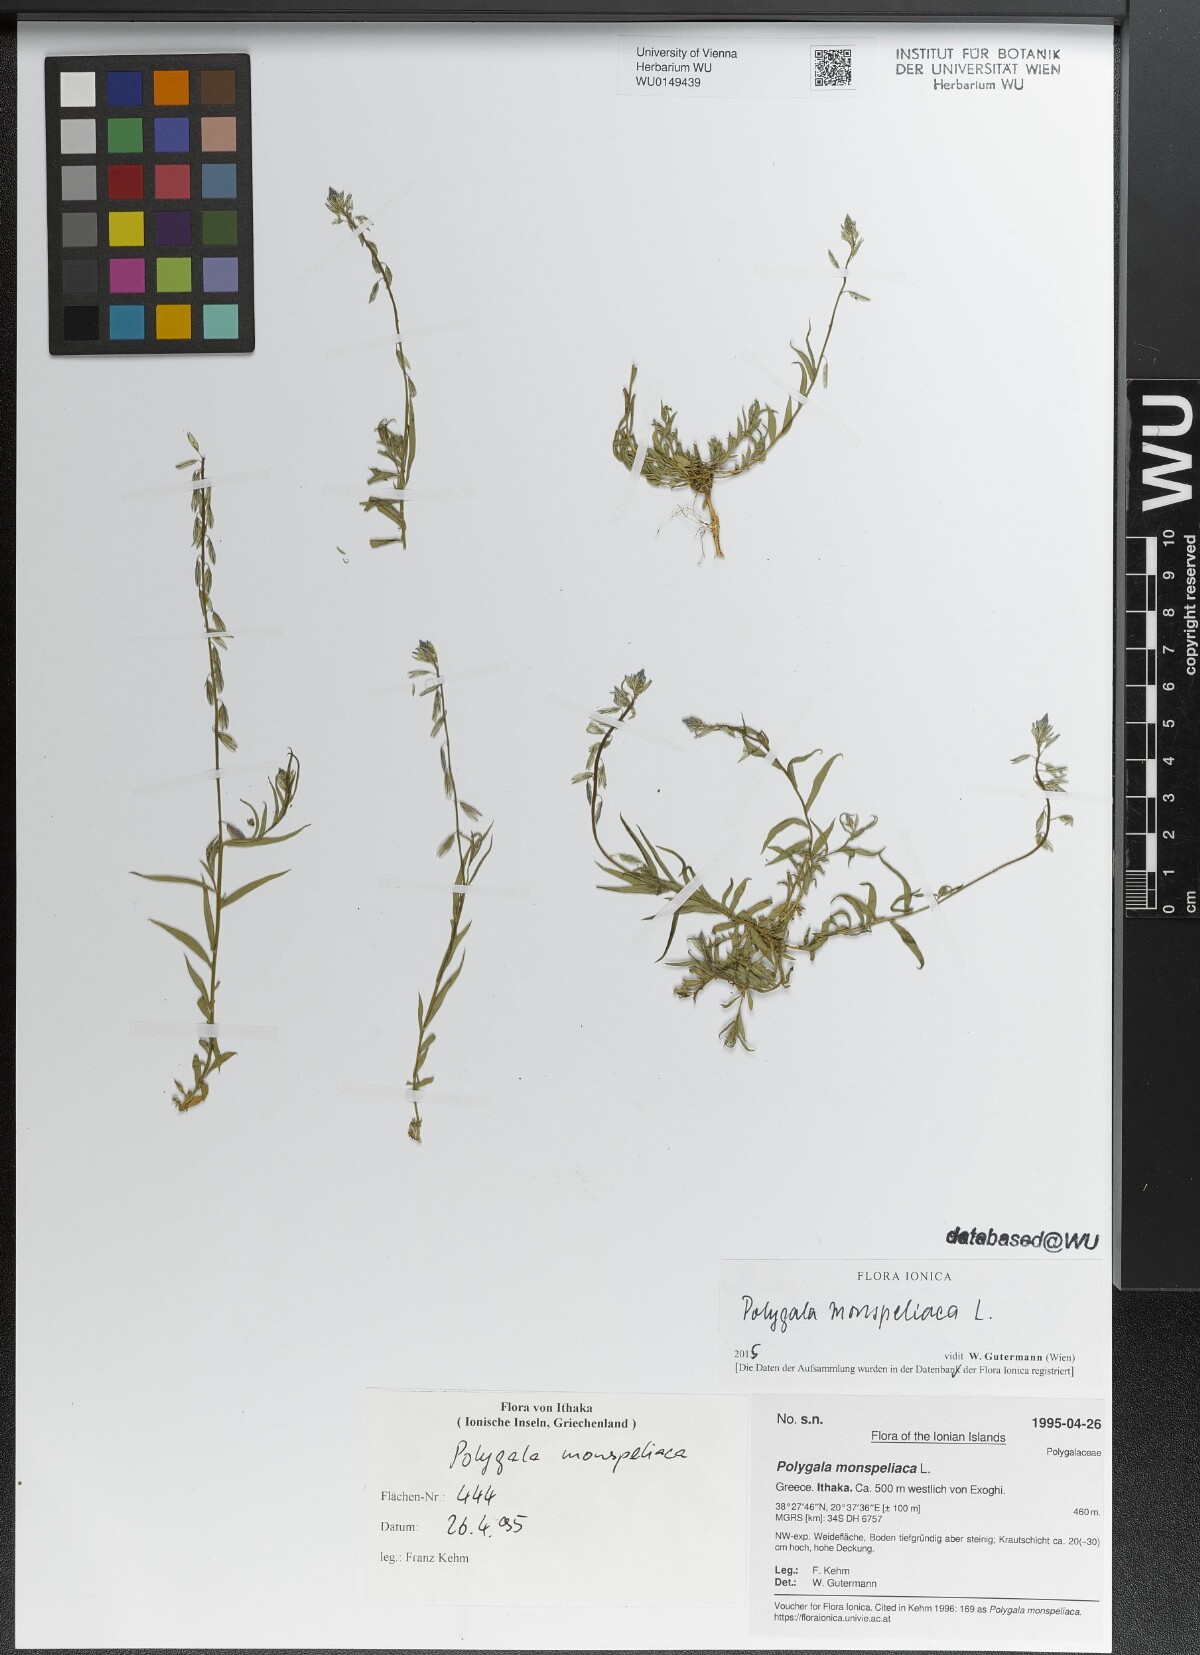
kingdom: Plantae
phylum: Tracheophyta
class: Magnoliopsida
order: Fabales
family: Polygalaceae
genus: Polygala
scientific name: Polygala monspeliaca
